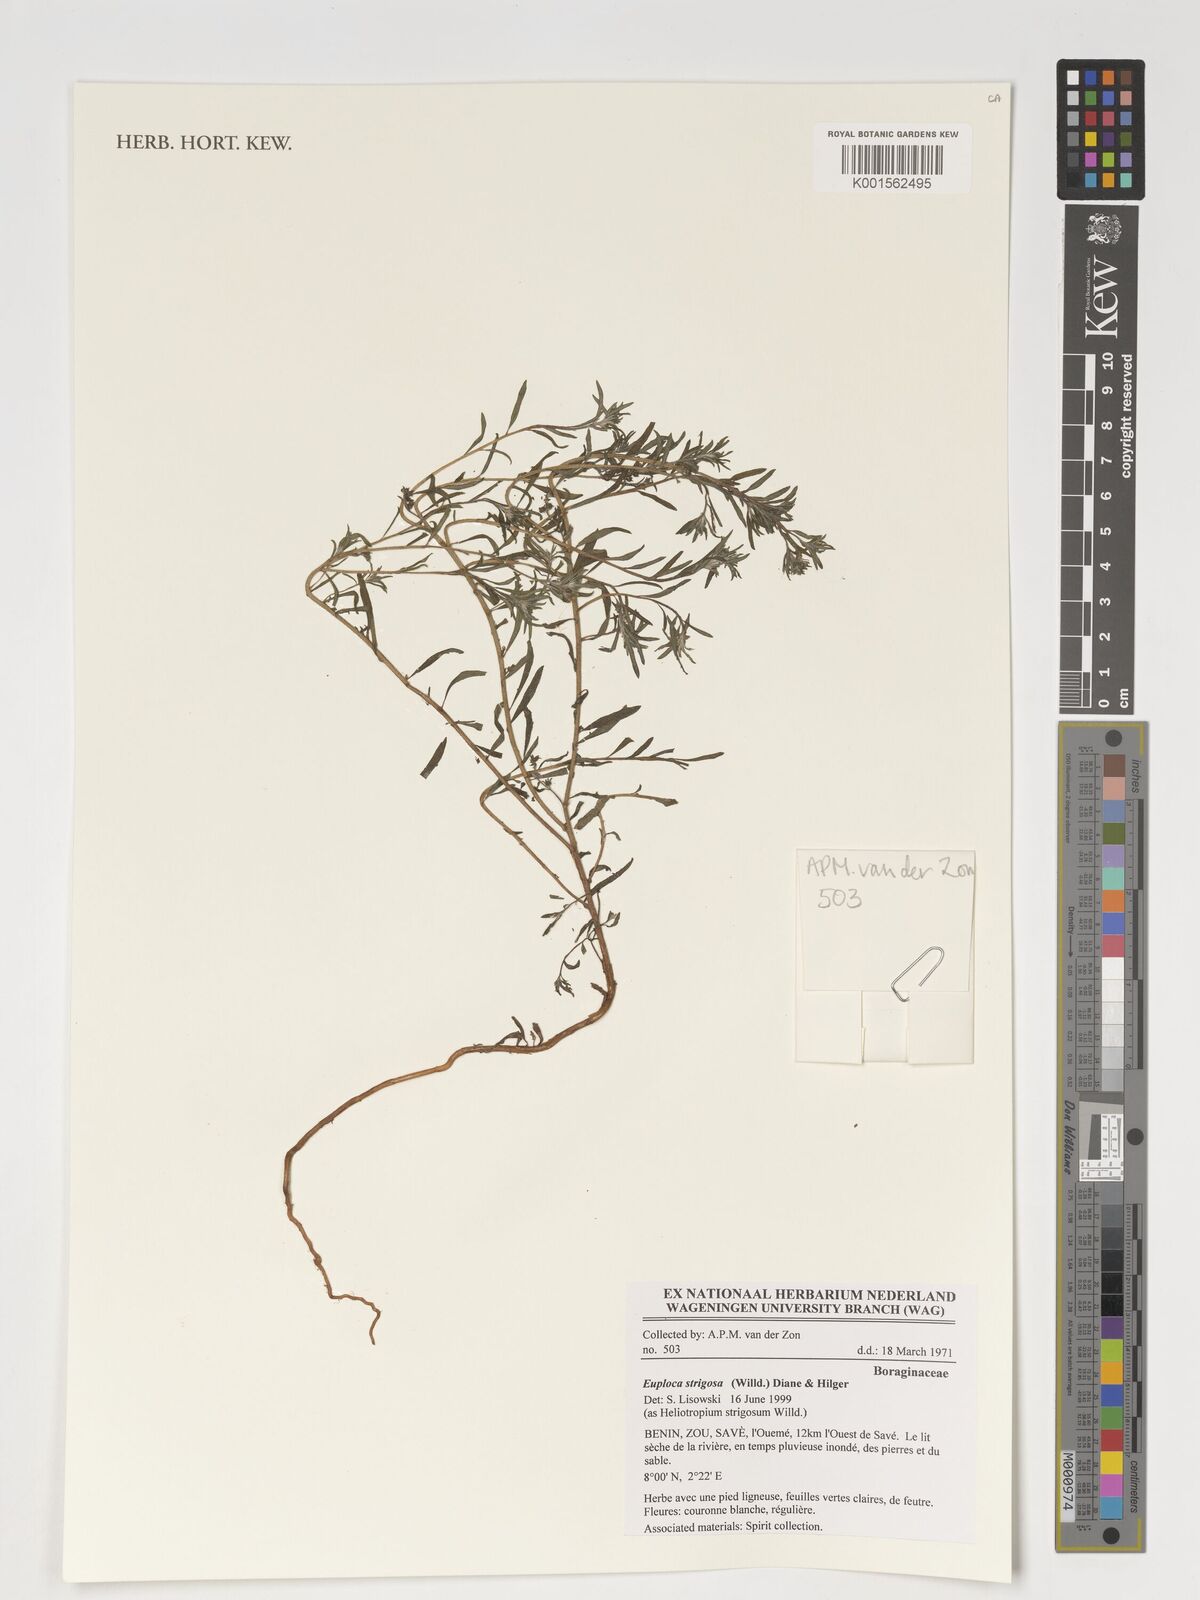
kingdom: Plantae
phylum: Tracheophyta
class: Magnoliopsida
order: Boraginales
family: Heliotropiaceae
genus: Euploca
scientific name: Euploca strigosa
